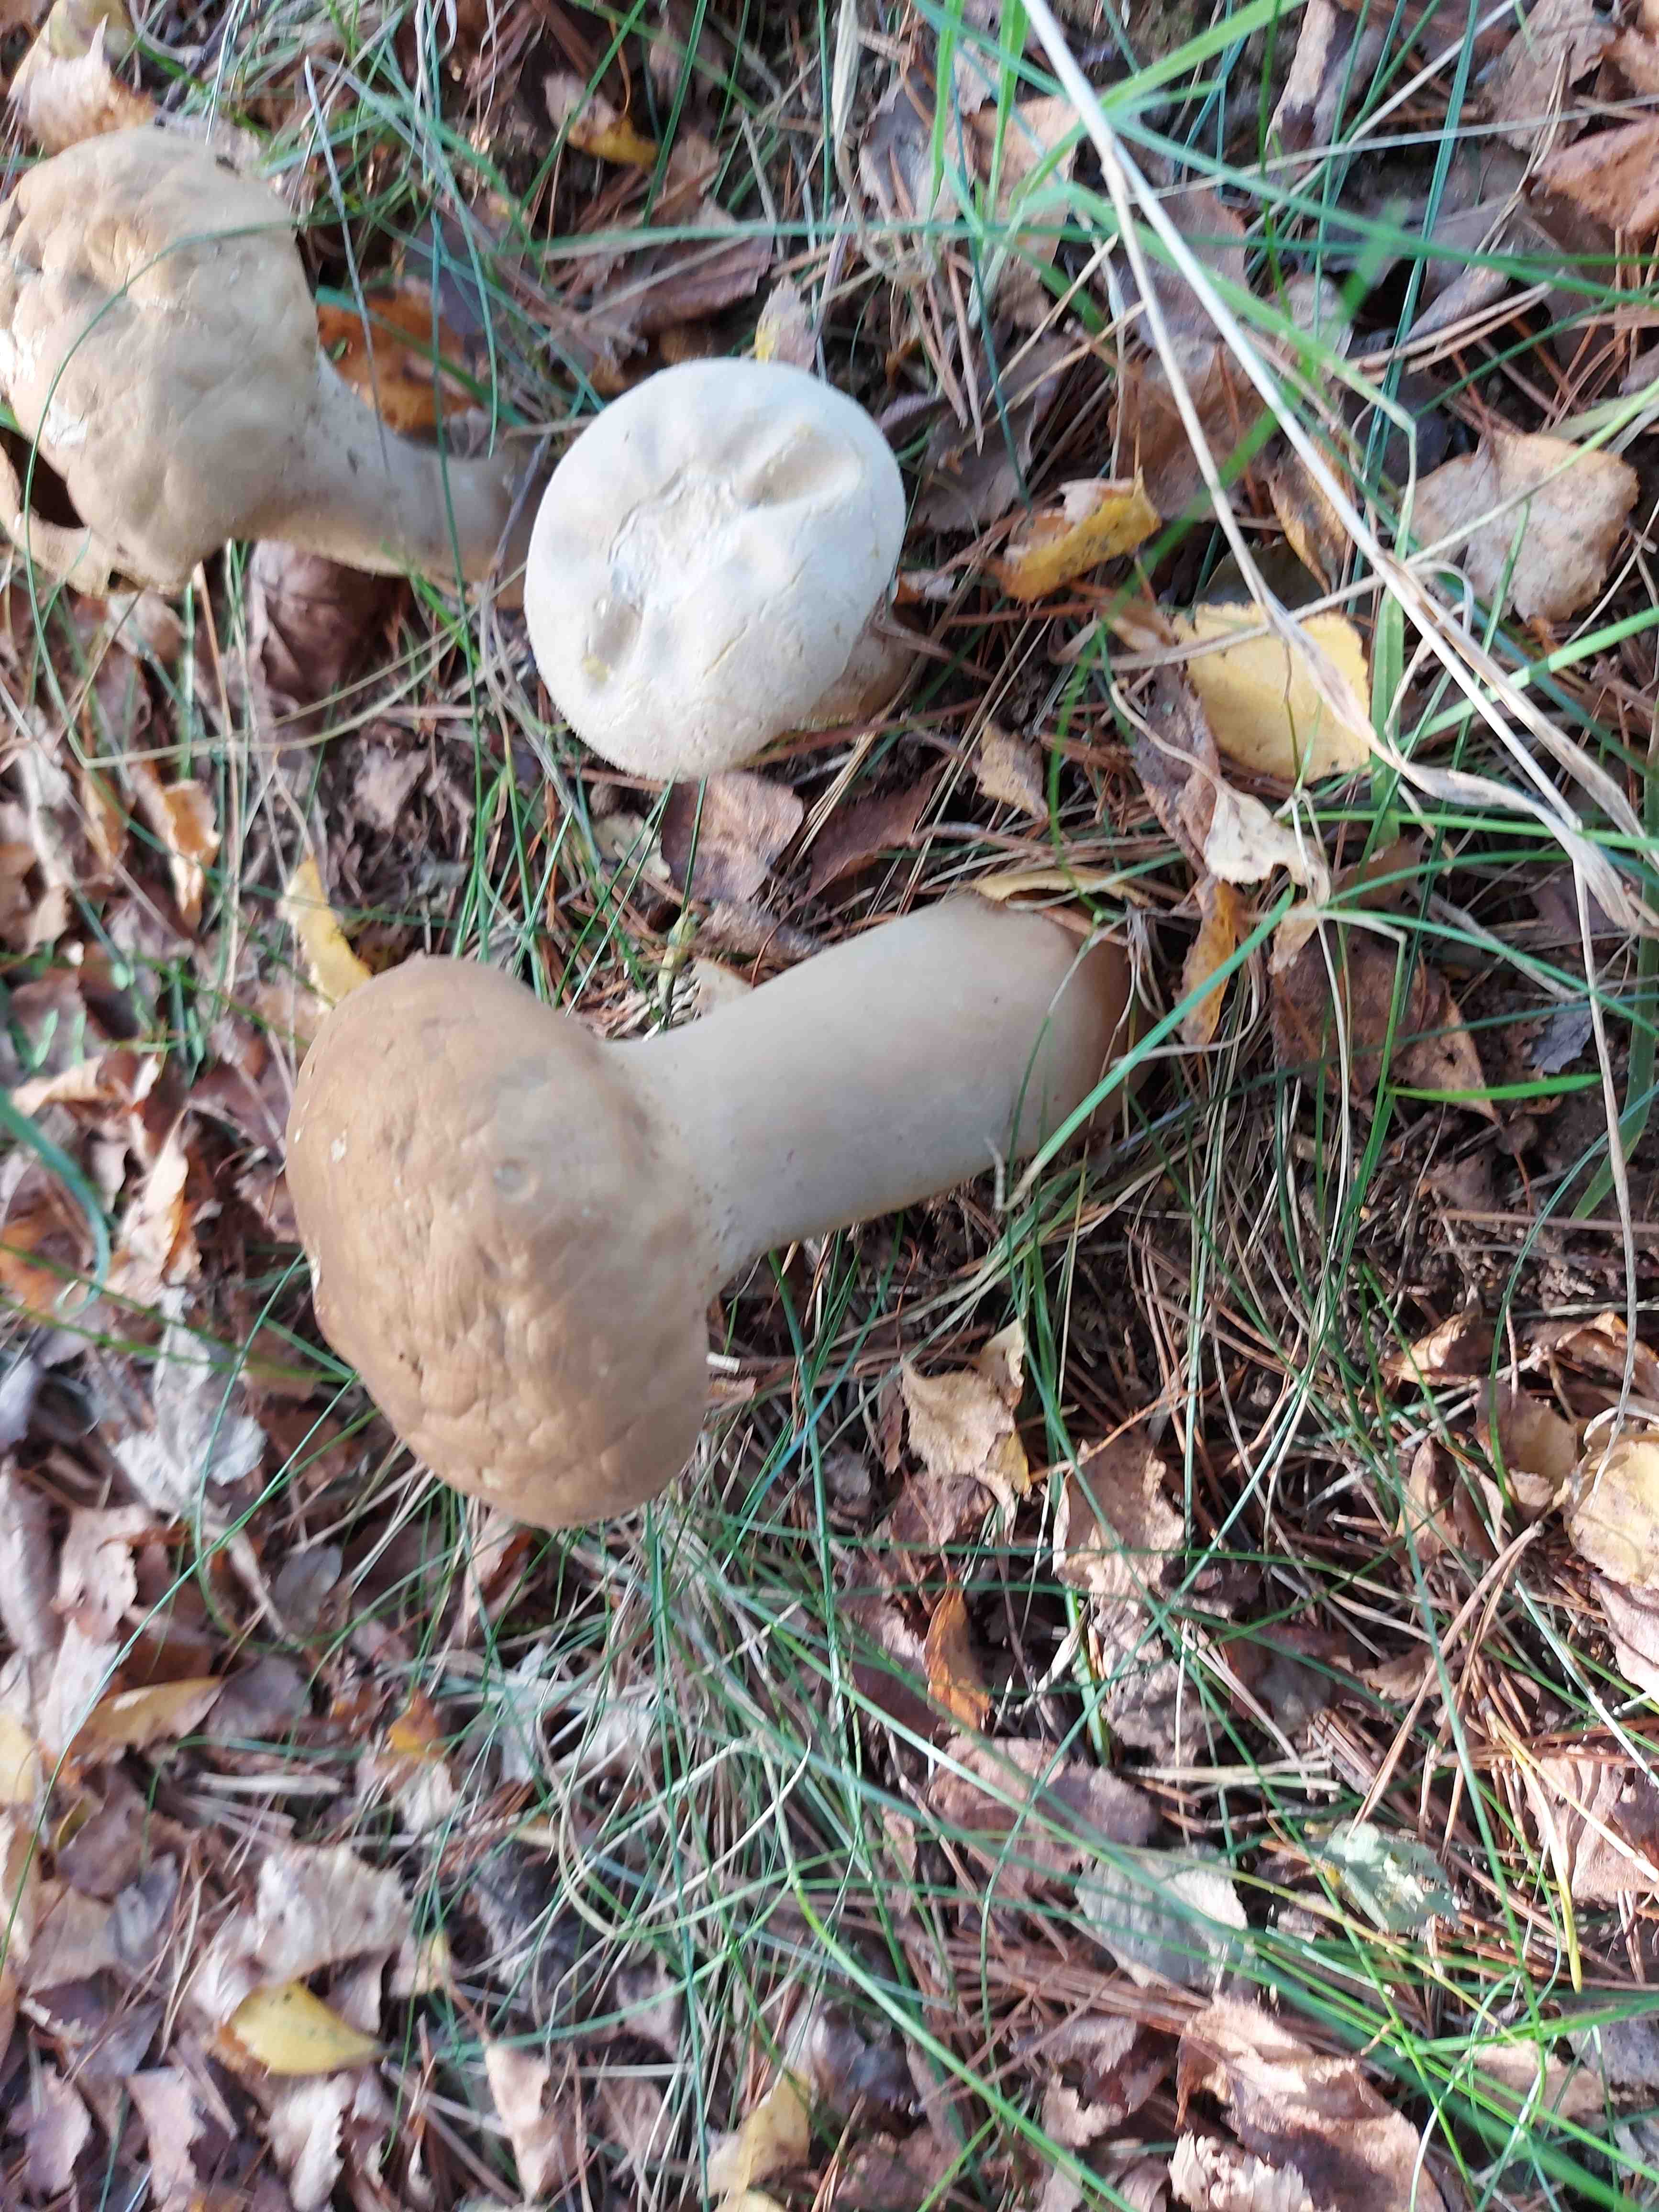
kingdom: Fungi
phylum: Basidiomycota
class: Agaricomycetes
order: Agaricales
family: Lycoperdaceae
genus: Lycoperdon
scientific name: Lycoperdon excipuliforme
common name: højstokket støvbold
